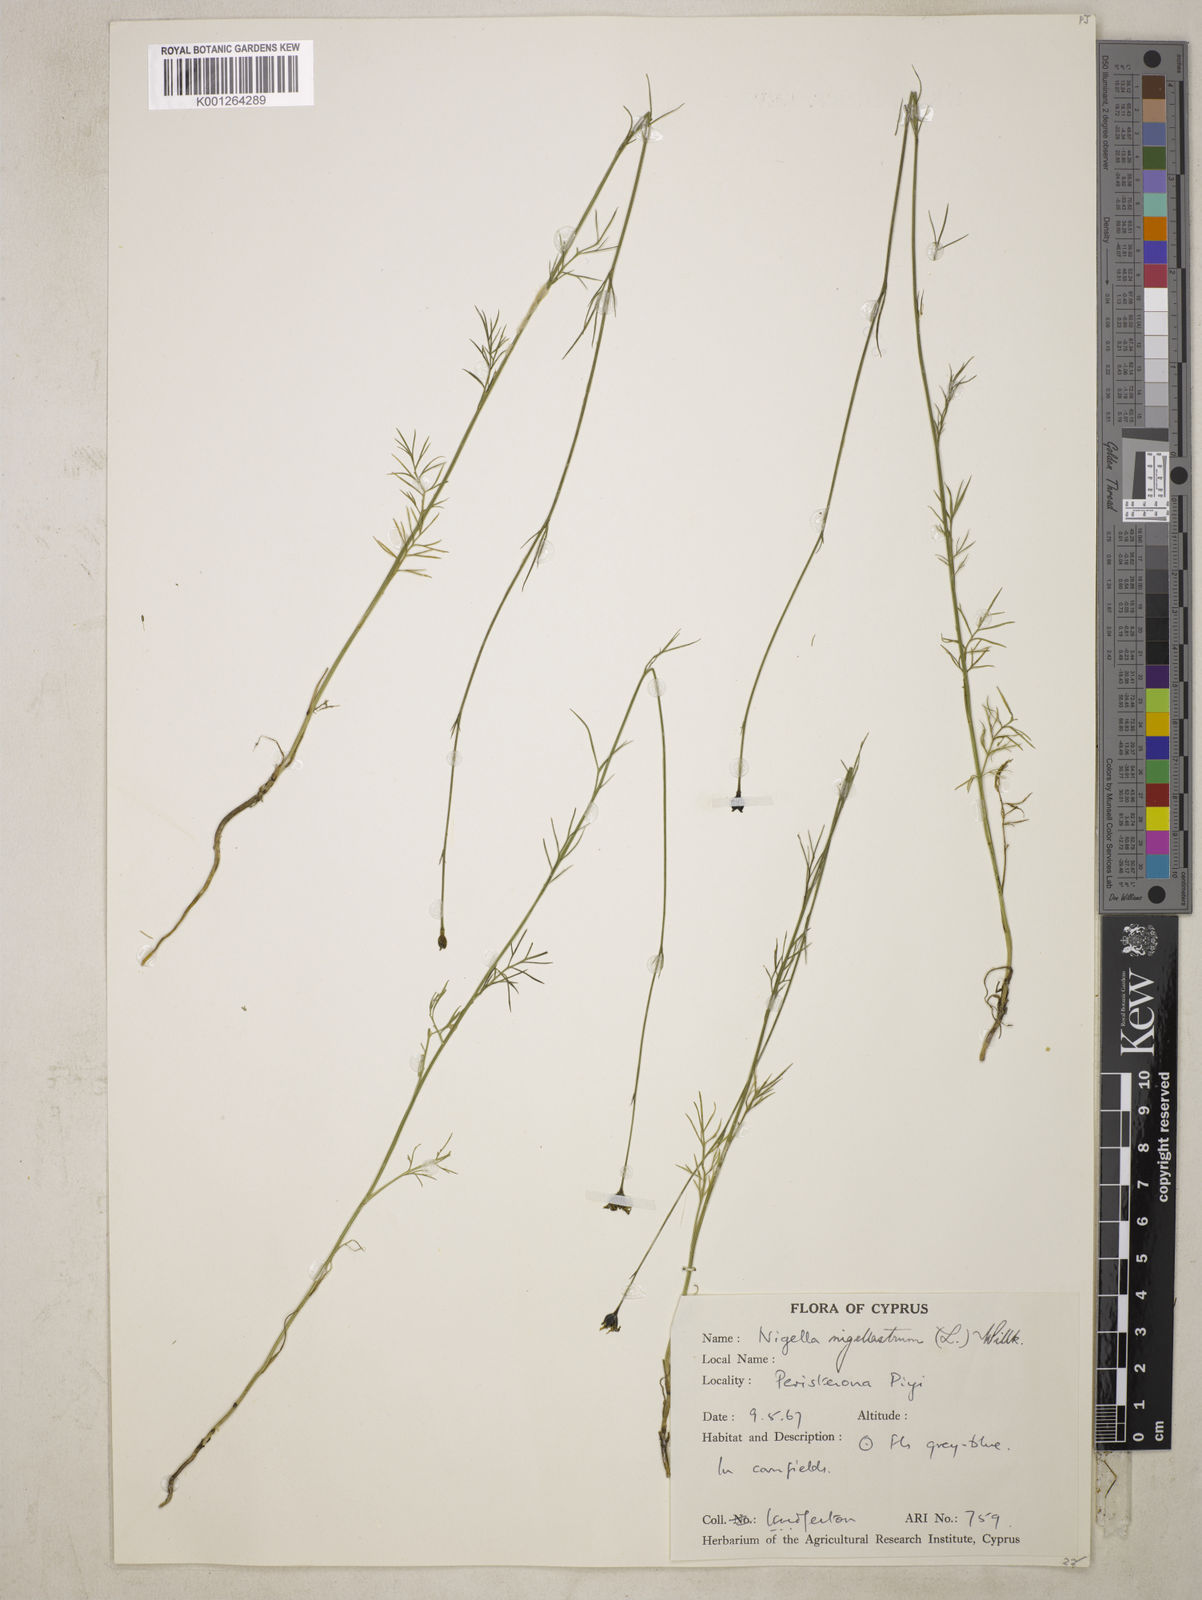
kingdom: Plantae
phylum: Tracheophyta
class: Magnoliopsida
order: Ranunculales
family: Ranunculaceae
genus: Garidella
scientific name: Garidella nigellastrum
